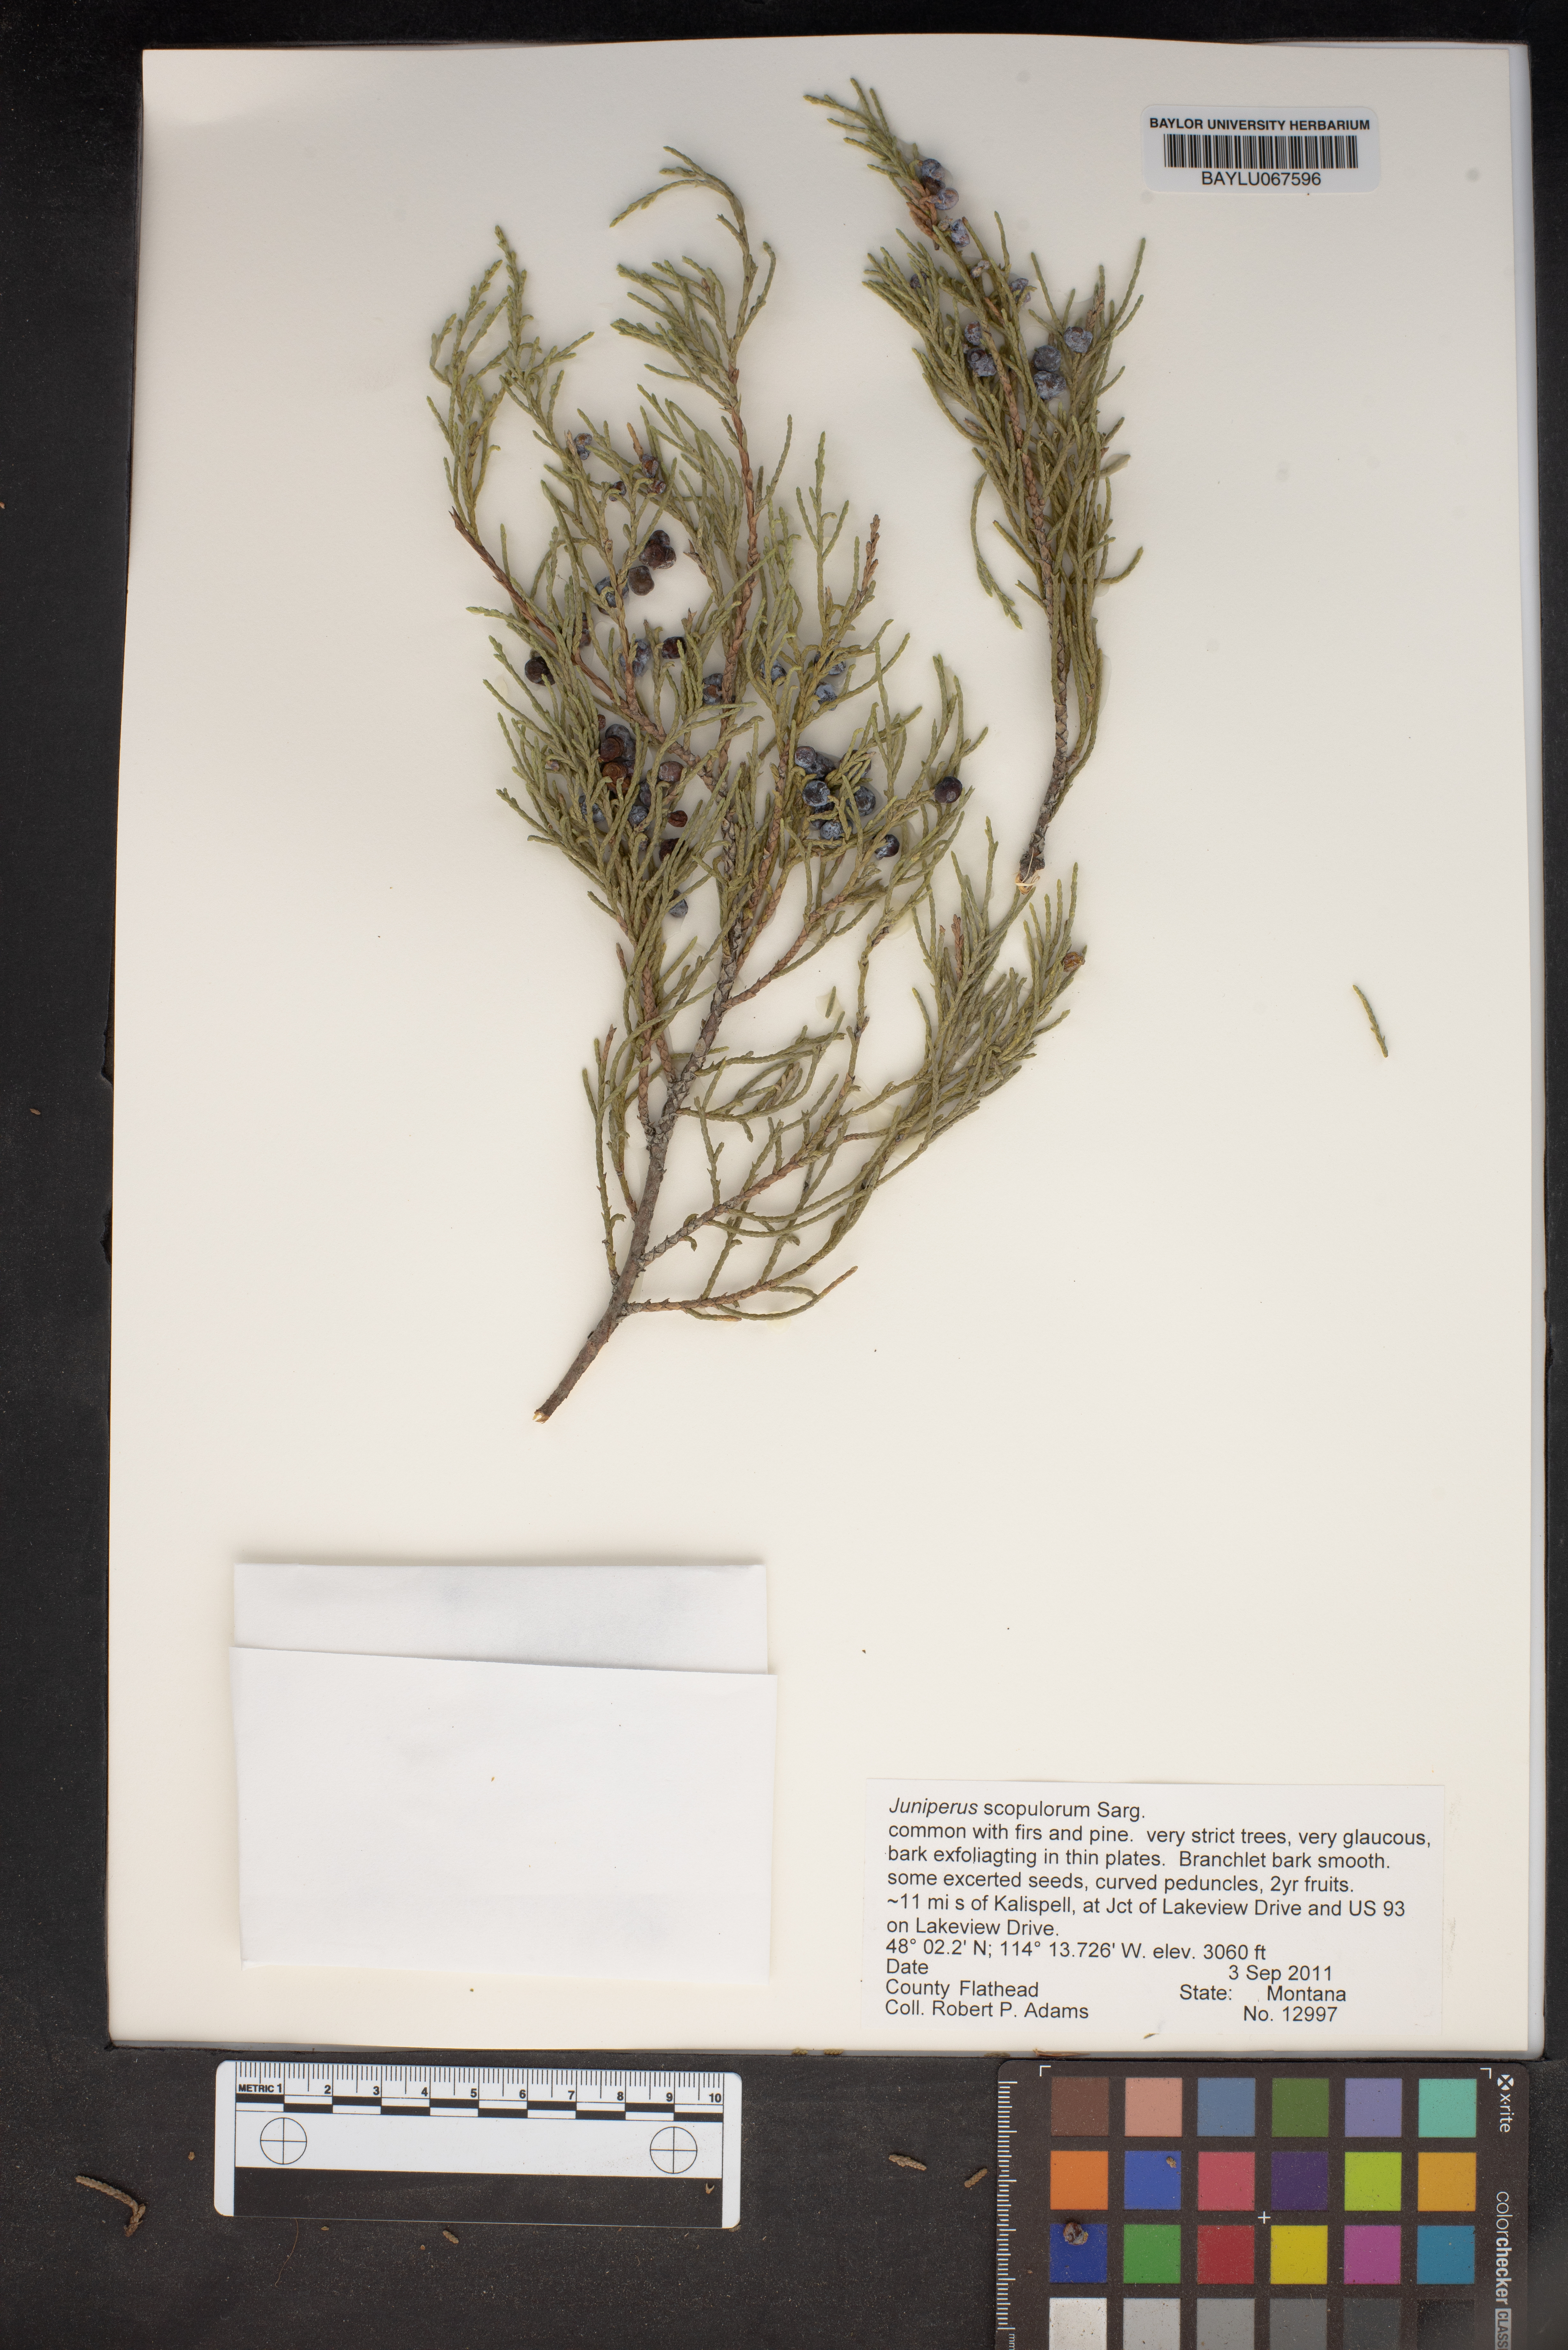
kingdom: Plantae
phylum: Tracheophyta
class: Pinopsida
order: Pinales
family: Cupressaceae
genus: Juniperus
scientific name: Juniperus scopulorum
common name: Rocky mountain juniper
